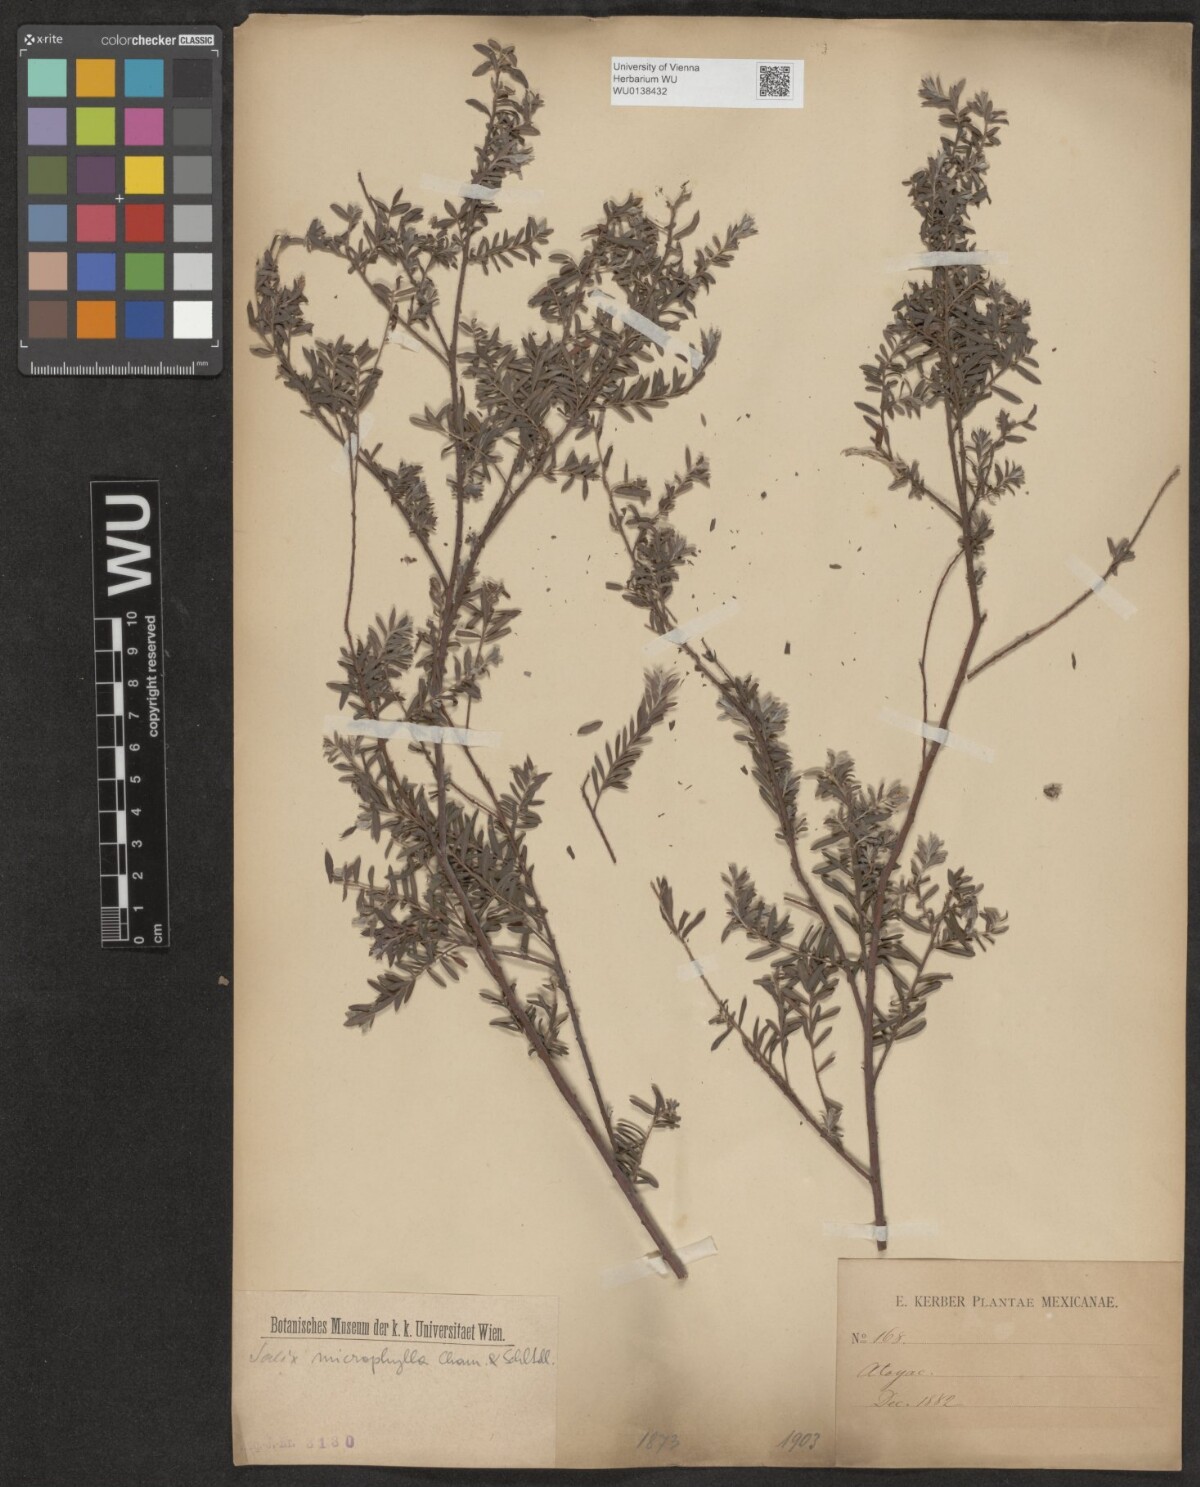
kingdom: Plantae
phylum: Tracheophyta
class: Magnoliopsida
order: Malpighiales
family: Salicaceae
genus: Salix
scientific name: Salix taxifolia
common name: Yew-leaf willow
